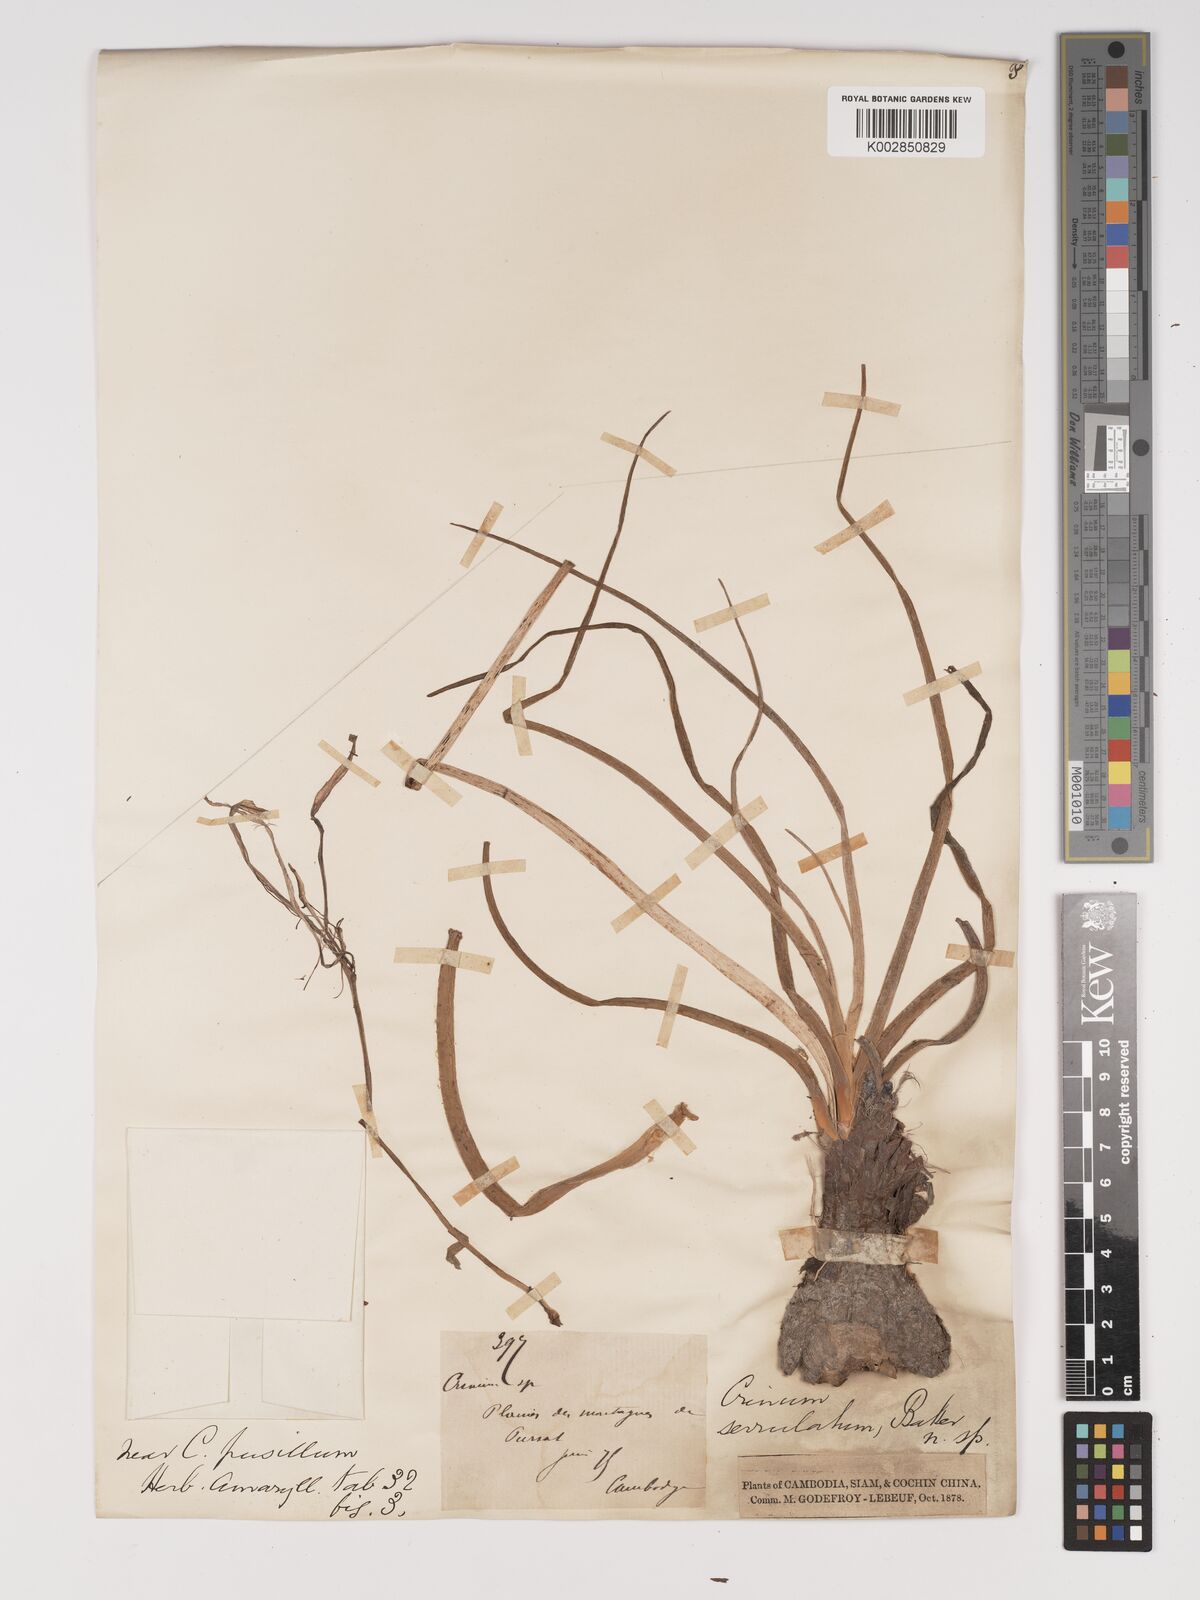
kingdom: Plantae
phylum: Tracheophyta
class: Liliopsida
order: Asparagales
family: Amaryllidaceae
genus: Crinum
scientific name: Crinum serrulatum
